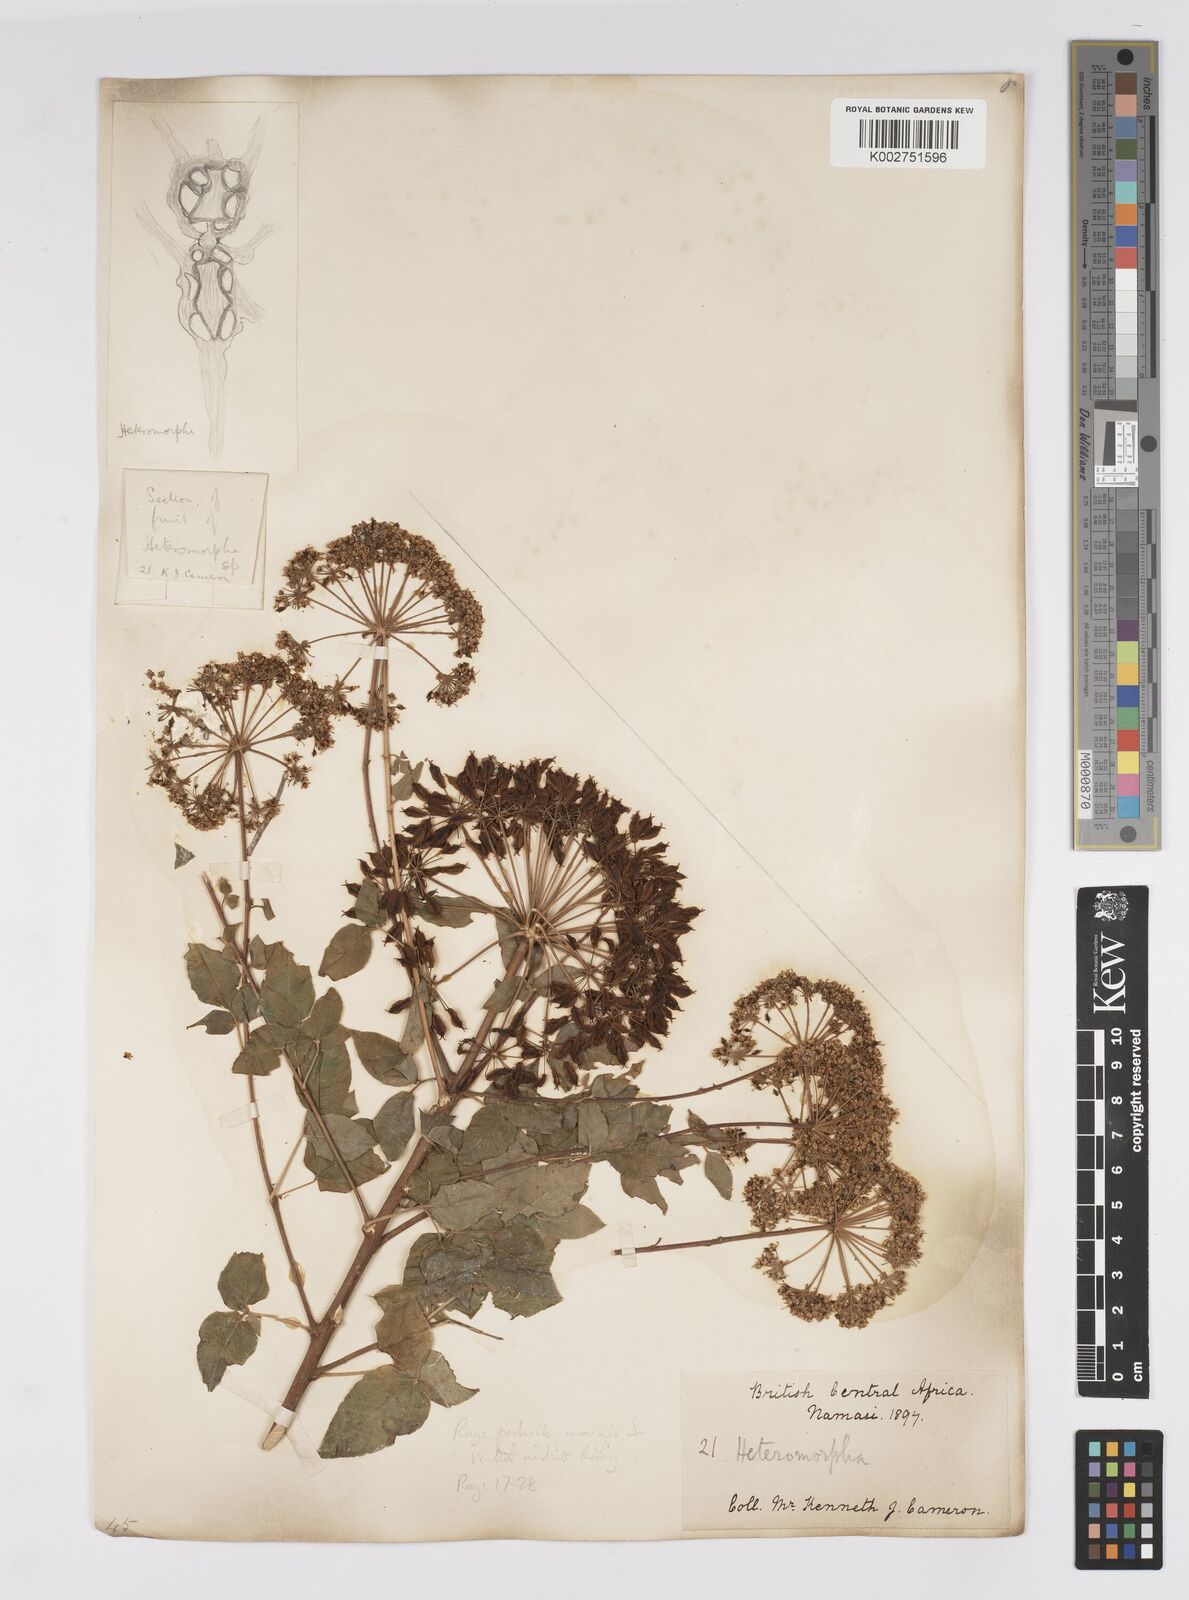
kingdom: Plantae
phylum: Tracheophyta
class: Magnoliopsida
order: Apiales
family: Apiaceae
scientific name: Apiaceae
